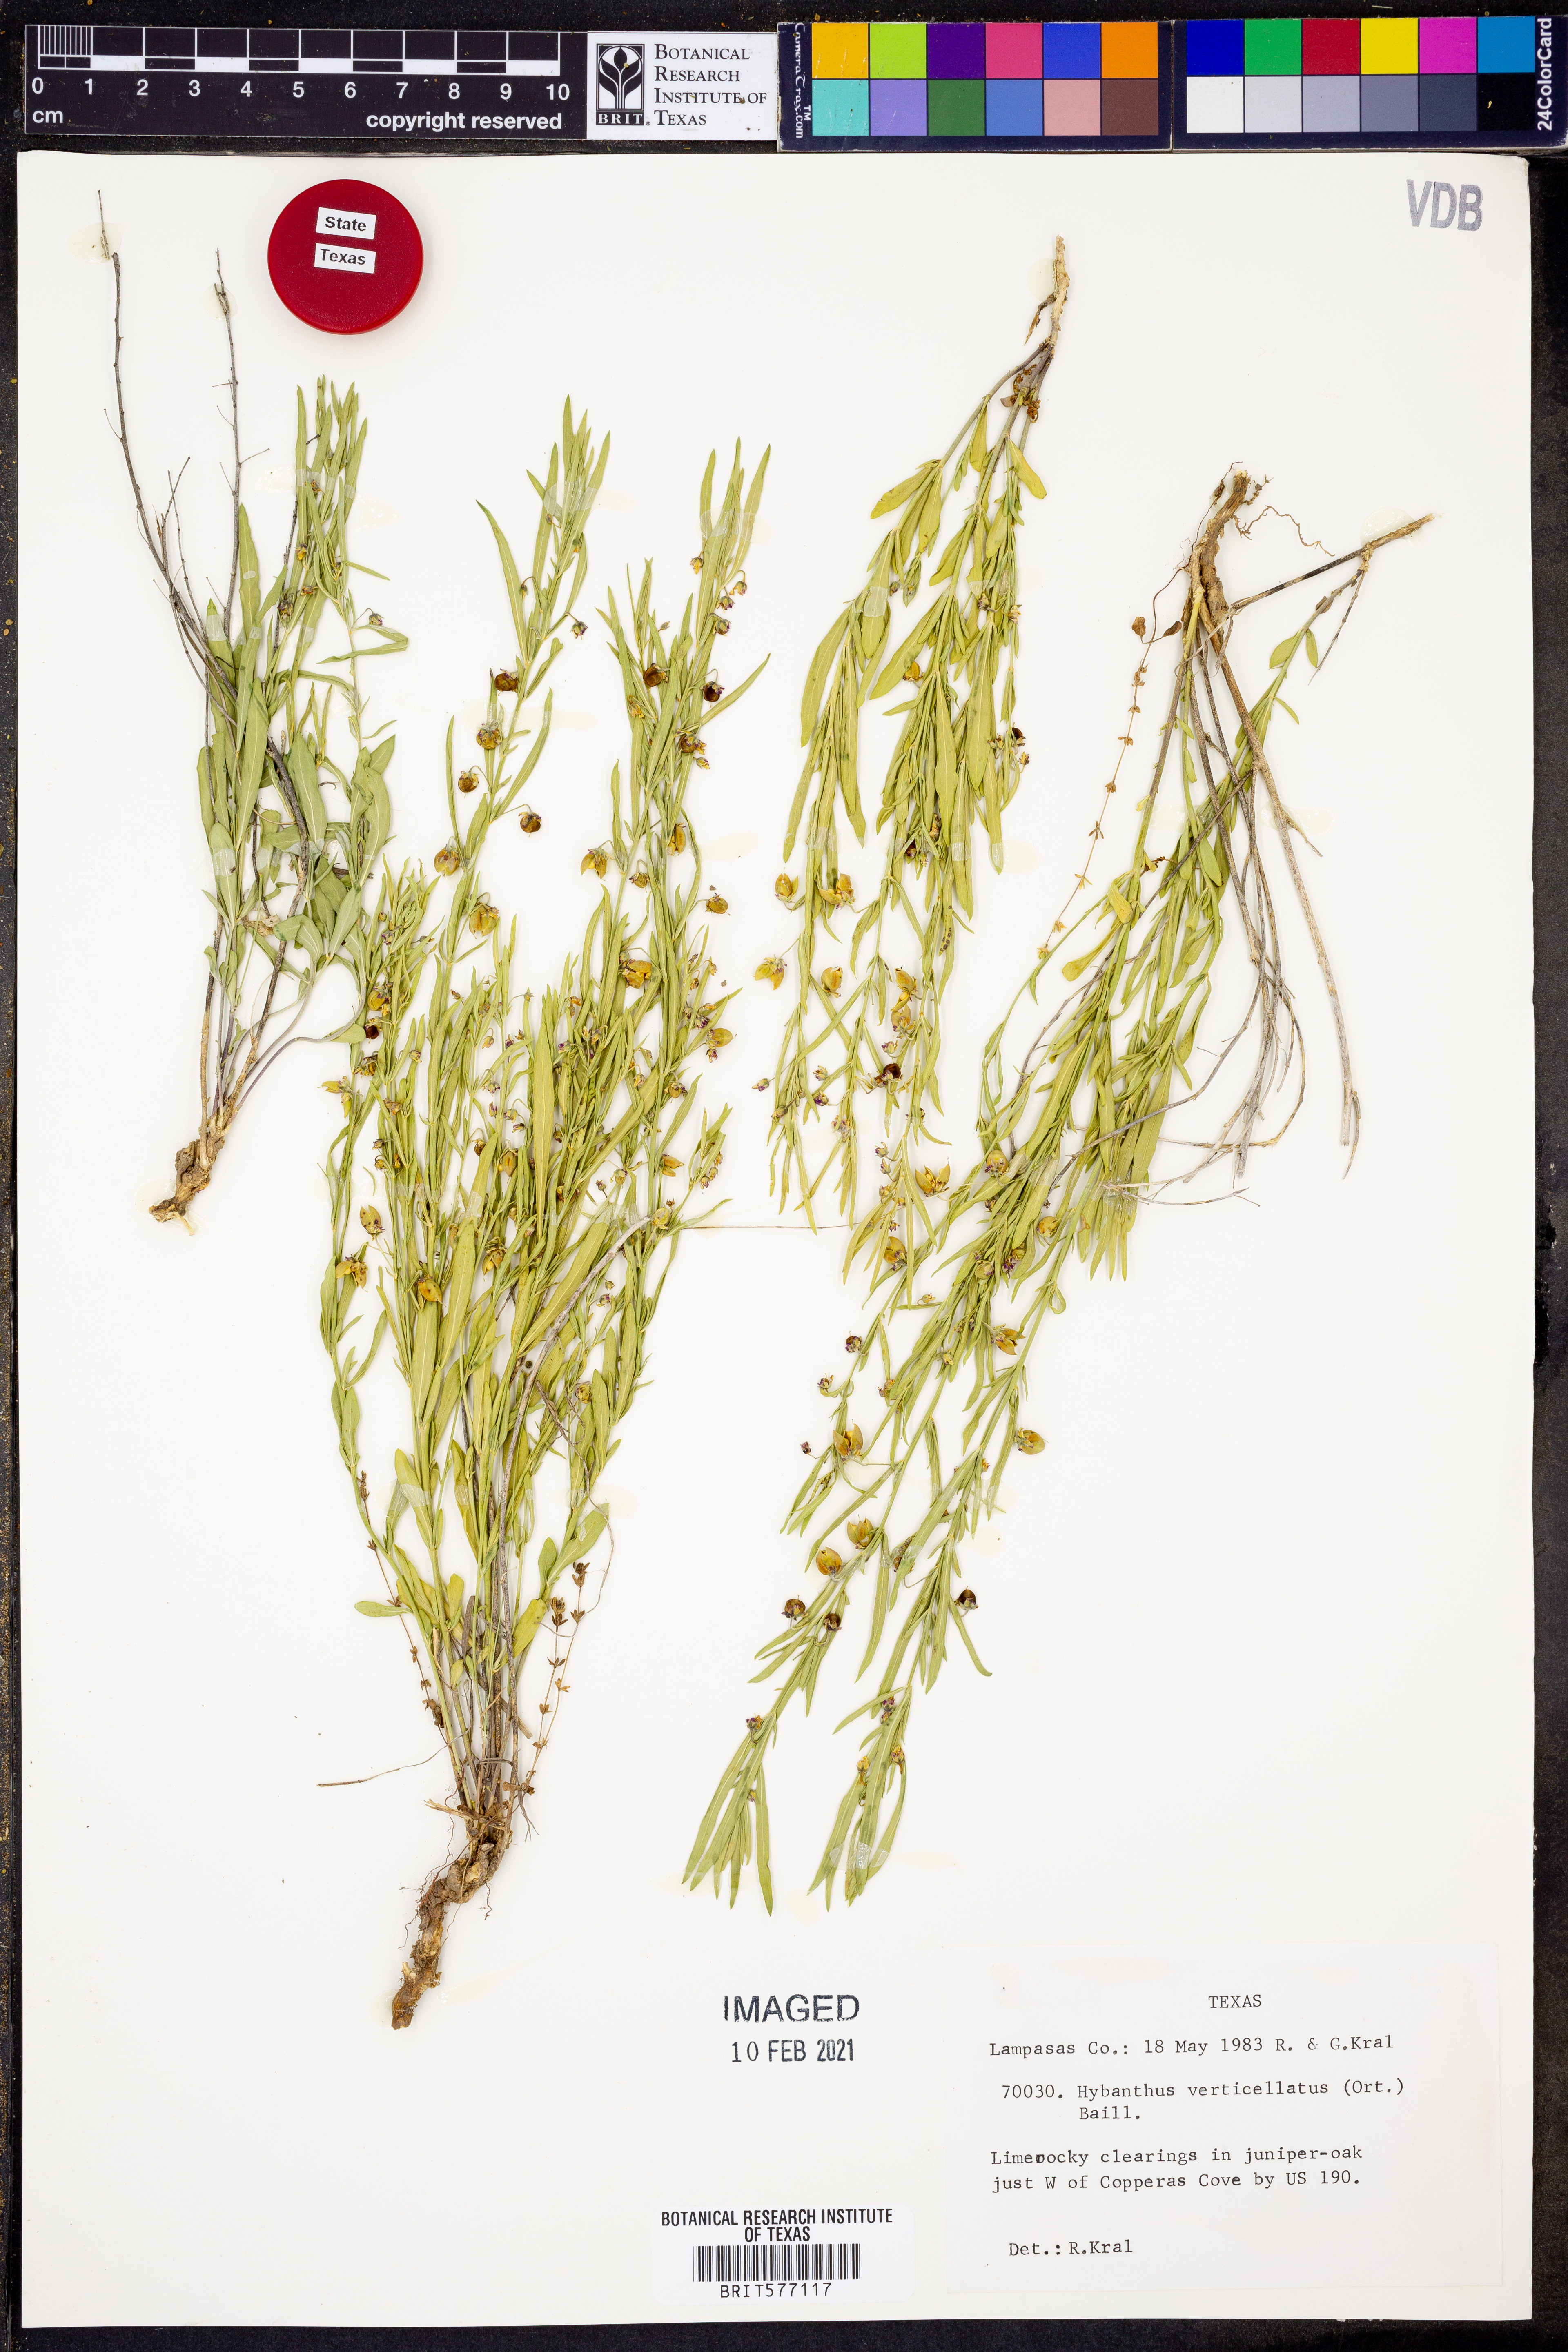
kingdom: Plantae
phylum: Tracheophyta
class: Magnoliopsida
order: Malpighiales
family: Violaceae
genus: Pombalia
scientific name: Pombalia verticillata
